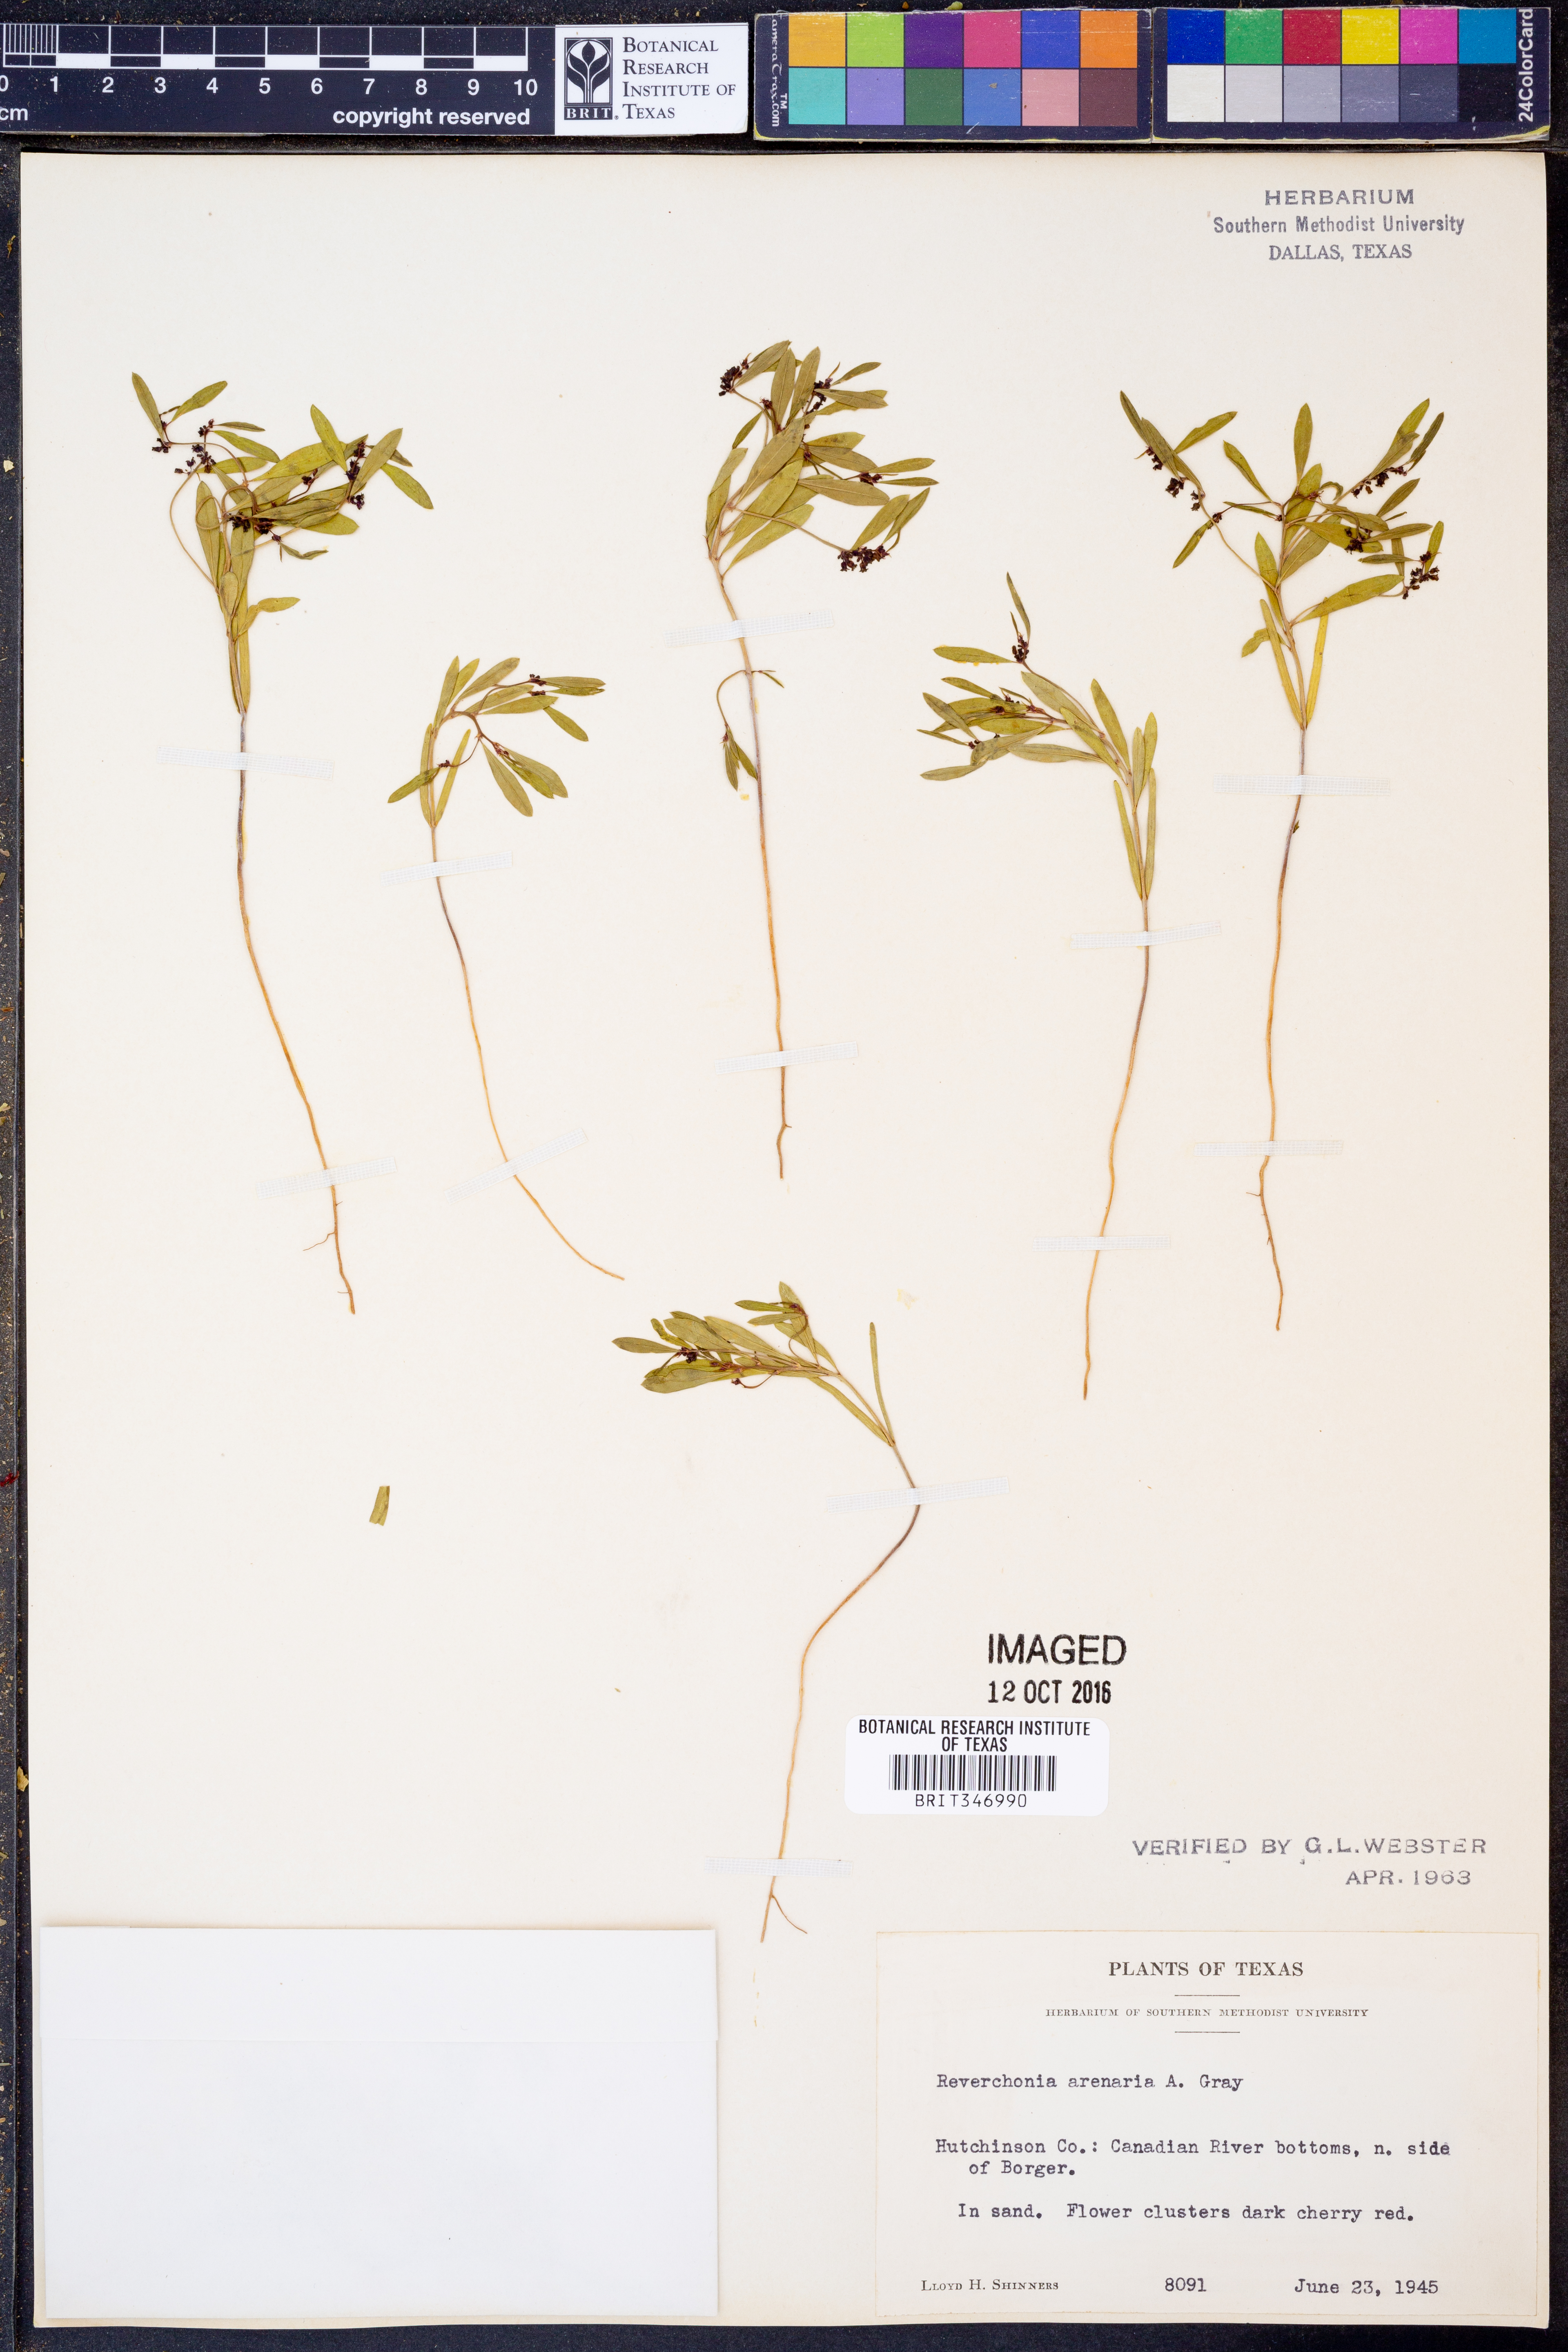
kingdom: Plantae
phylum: Tracheophyta
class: Magnoliopsida
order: Malpighiales
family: Phyllanthaceae
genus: Phyllanthus
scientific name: Phyllanthus warnockii
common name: Sand reverchonia
